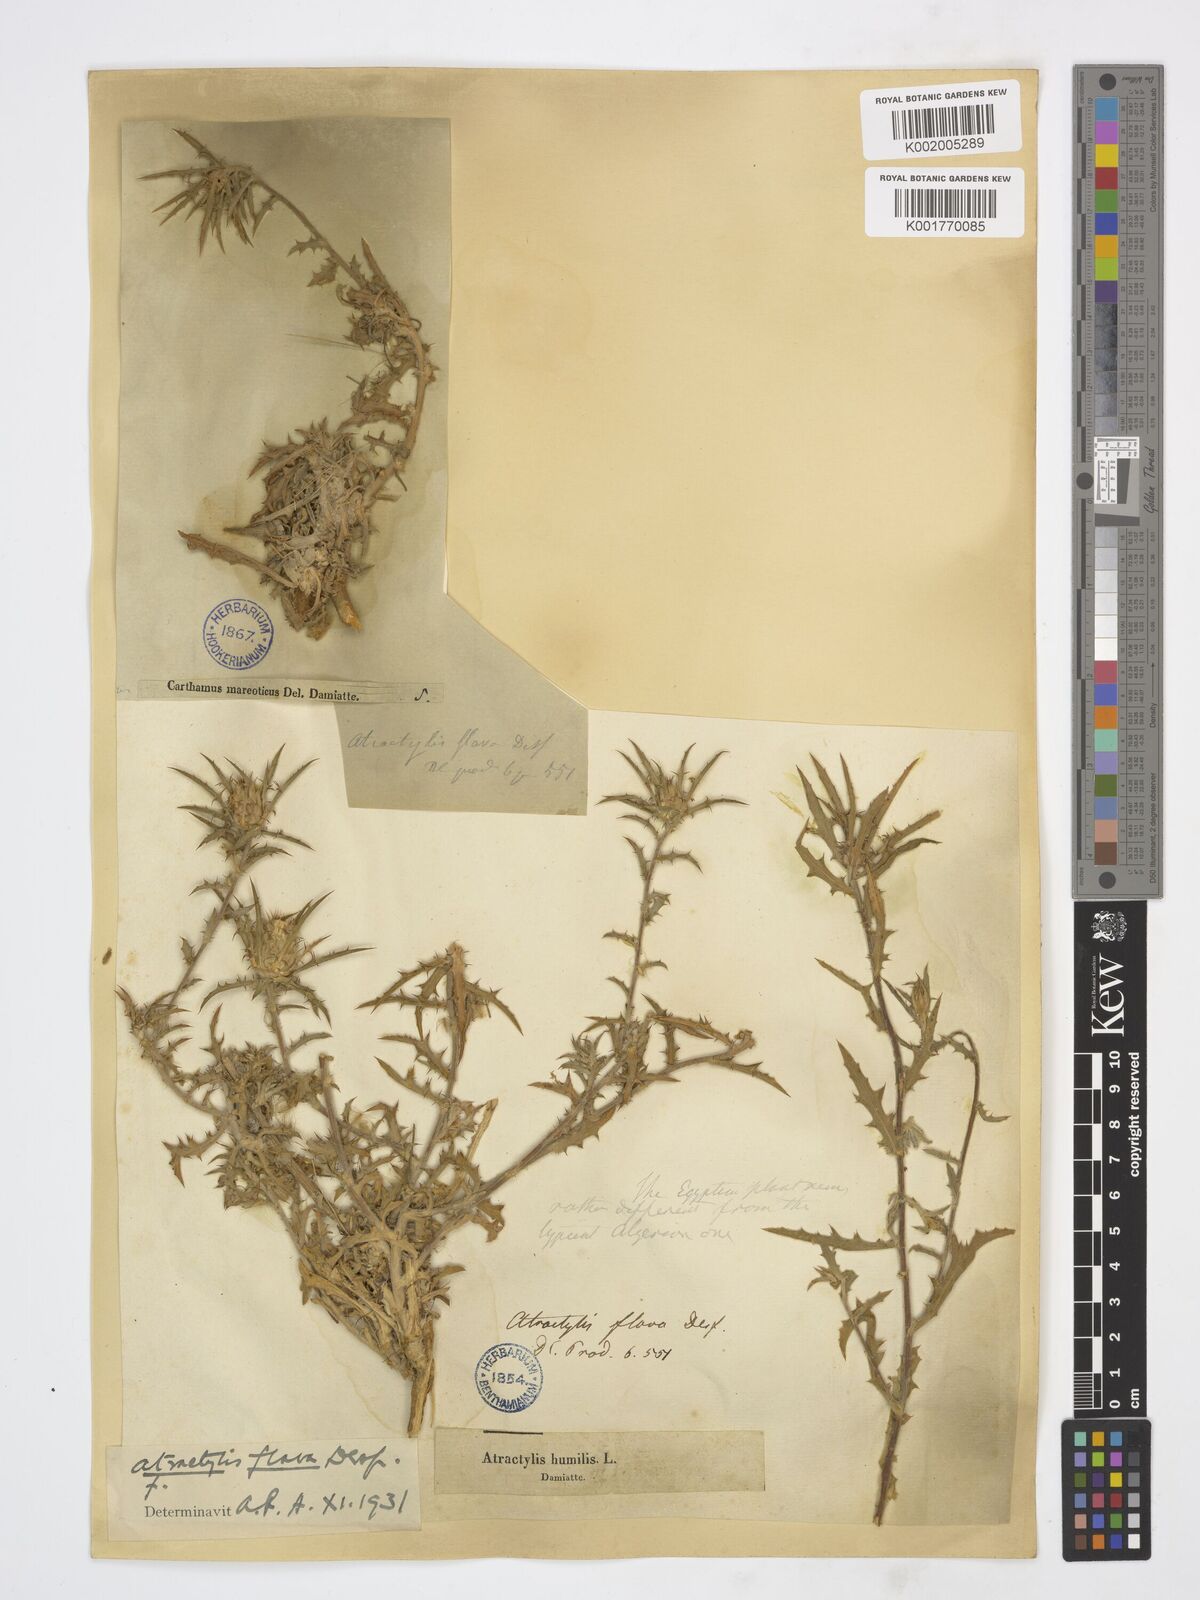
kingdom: Plantae
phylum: Tracheophyta
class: Magnoliopsida
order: Asterales
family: Asteraceae
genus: Atractylis
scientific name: Atractylis carduus
